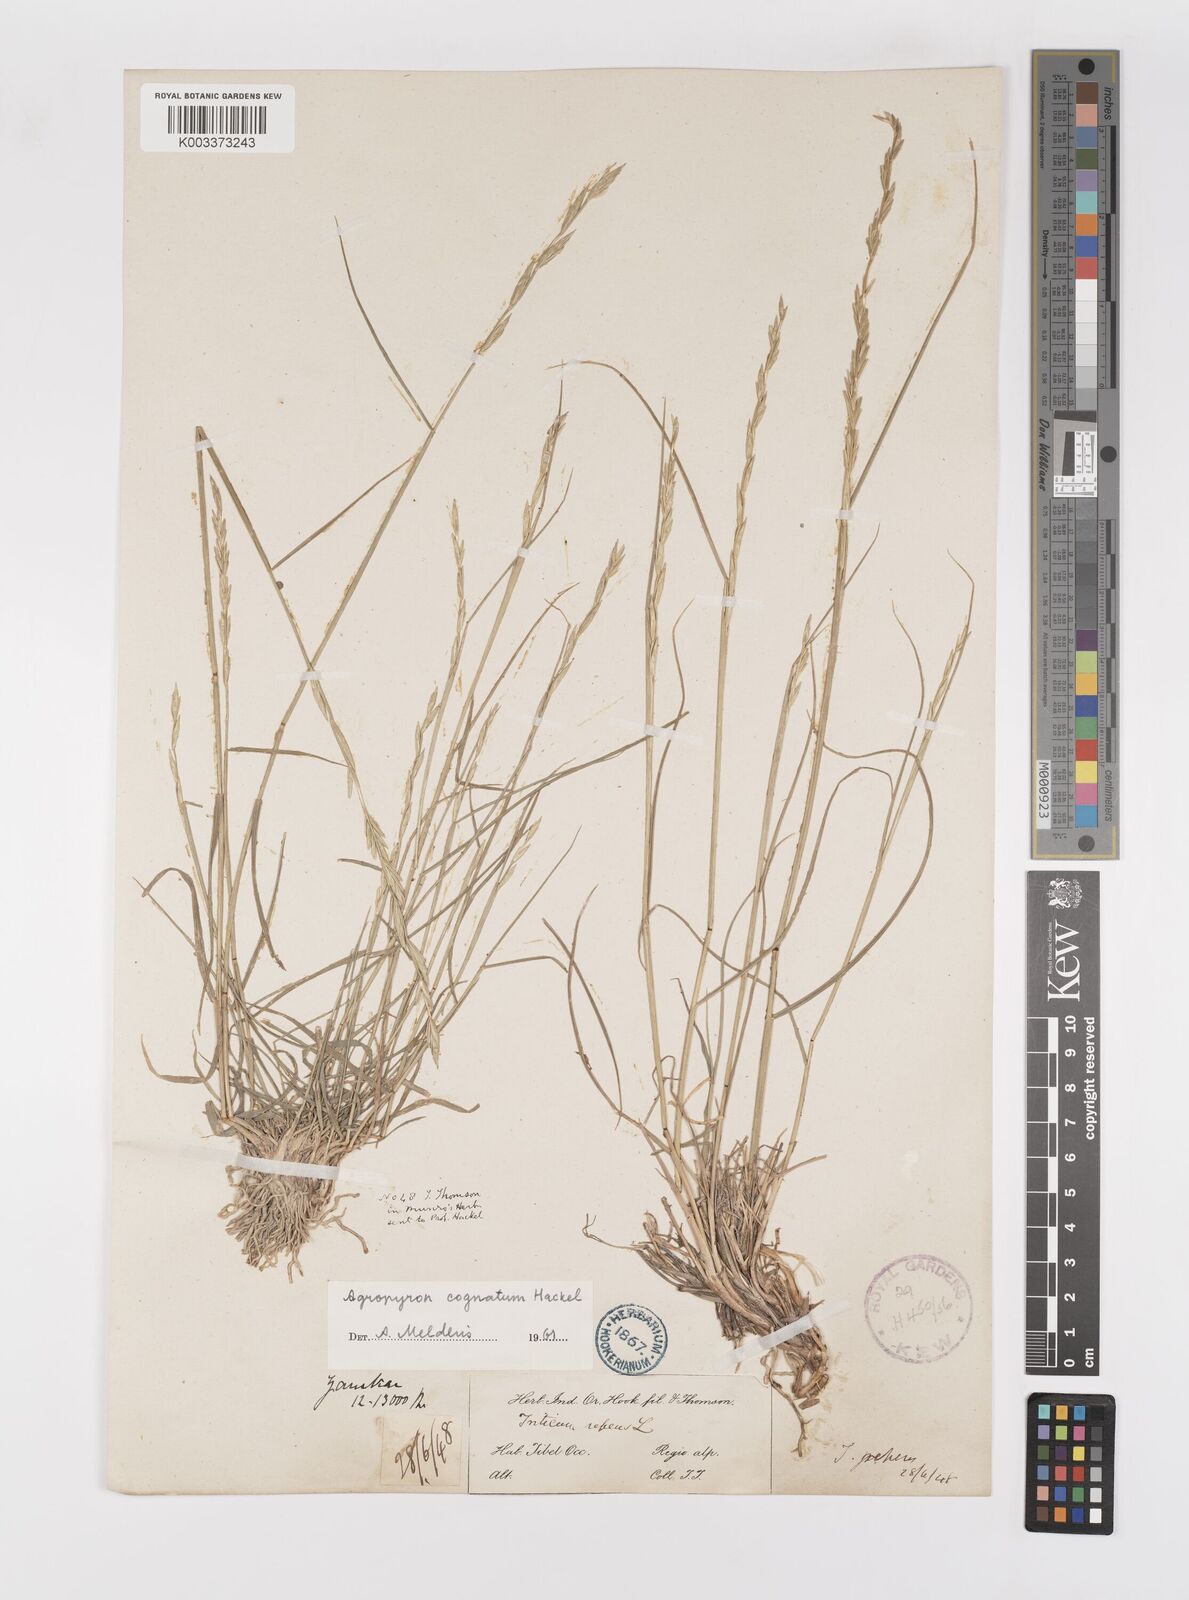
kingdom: Plantae
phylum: Tracheophyta
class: Liliopsida
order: Poales
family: Poaceae
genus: Pseudoroegneria
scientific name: Pseudoroegneria cognata
